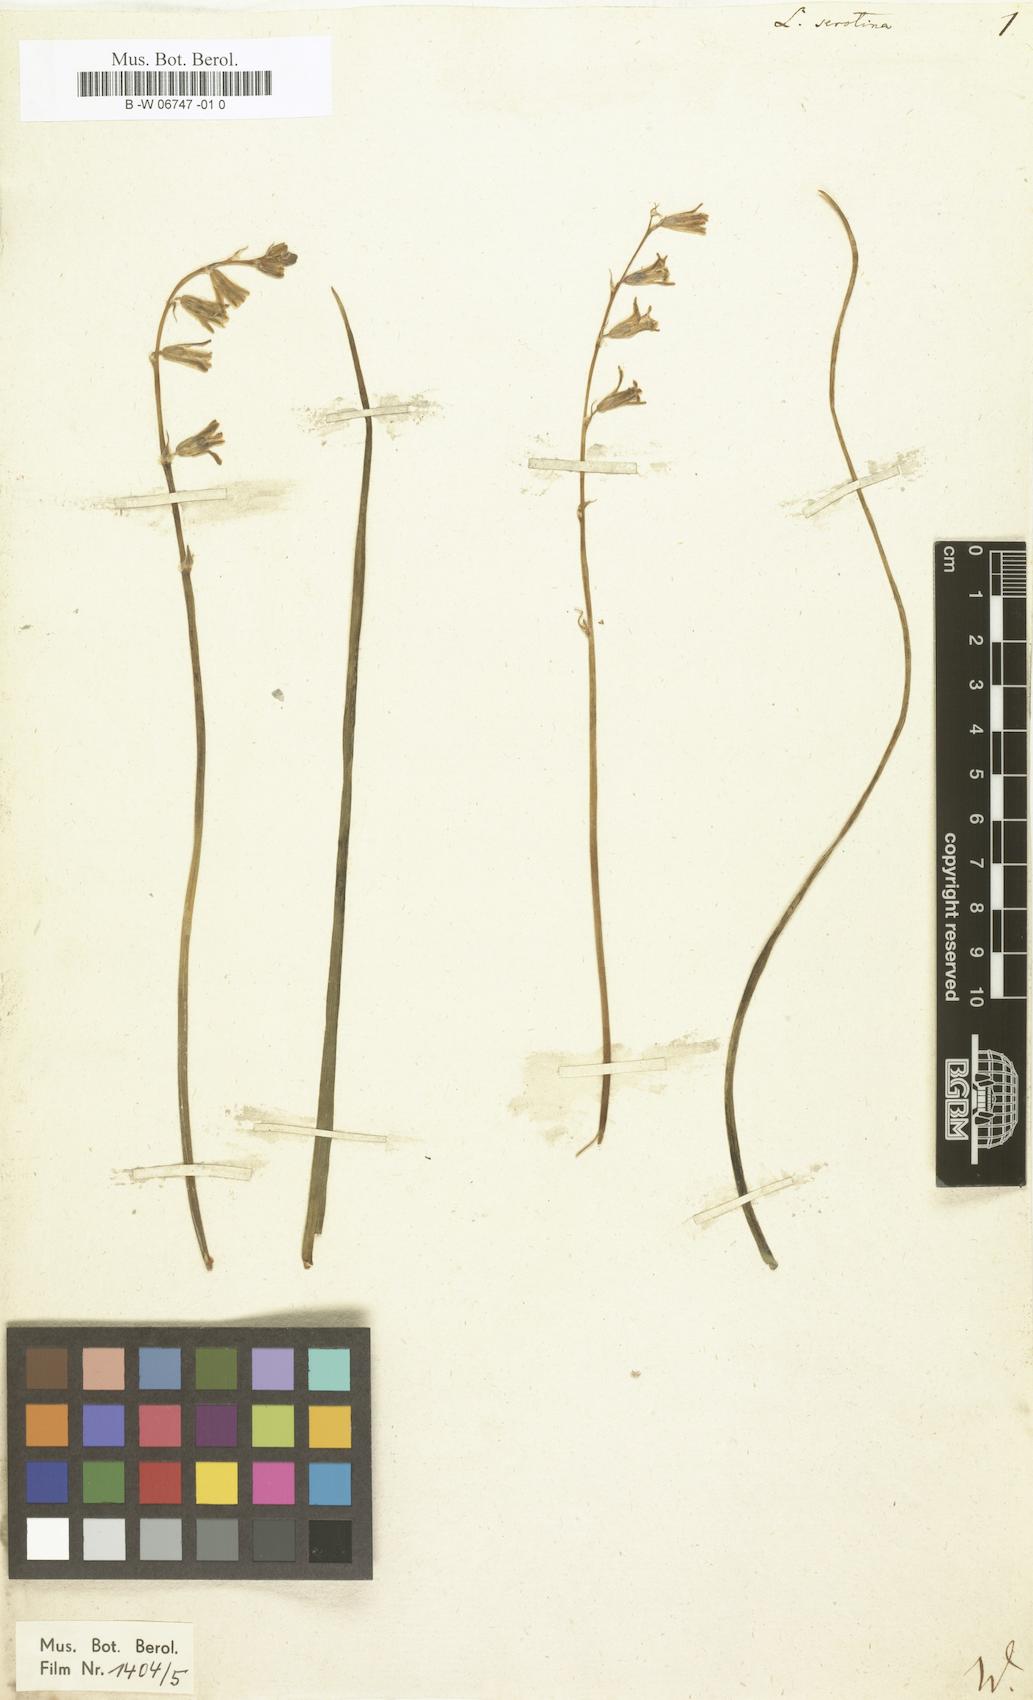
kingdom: Plantae
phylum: Tracheophyta
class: Liliopsida
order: Asparagales
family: Asparagaceae
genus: Dipcadi
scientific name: Dipcadi serotinum
